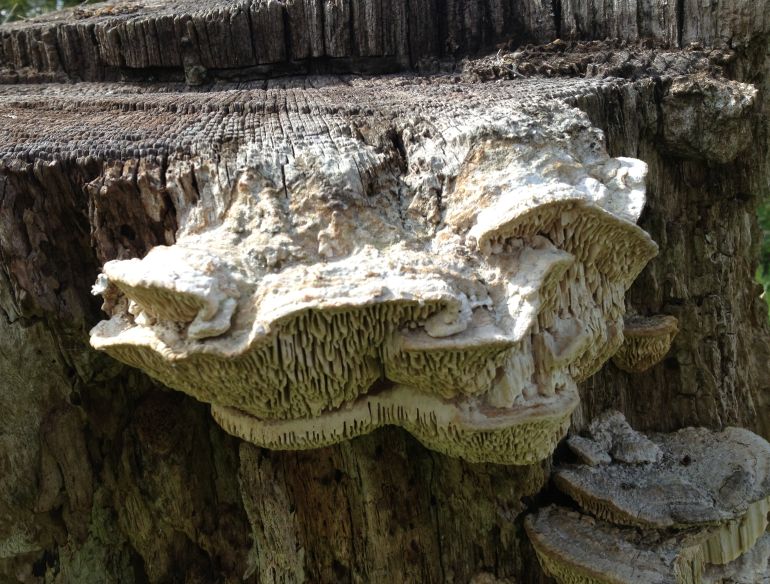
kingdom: Fungi
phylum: Basidiomycota
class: Agaricomycetes
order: Polyporales
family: Fomitopsidaceae
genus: Daedalea
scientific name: Daedalea quercina
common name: ege-labyrintsvamp
